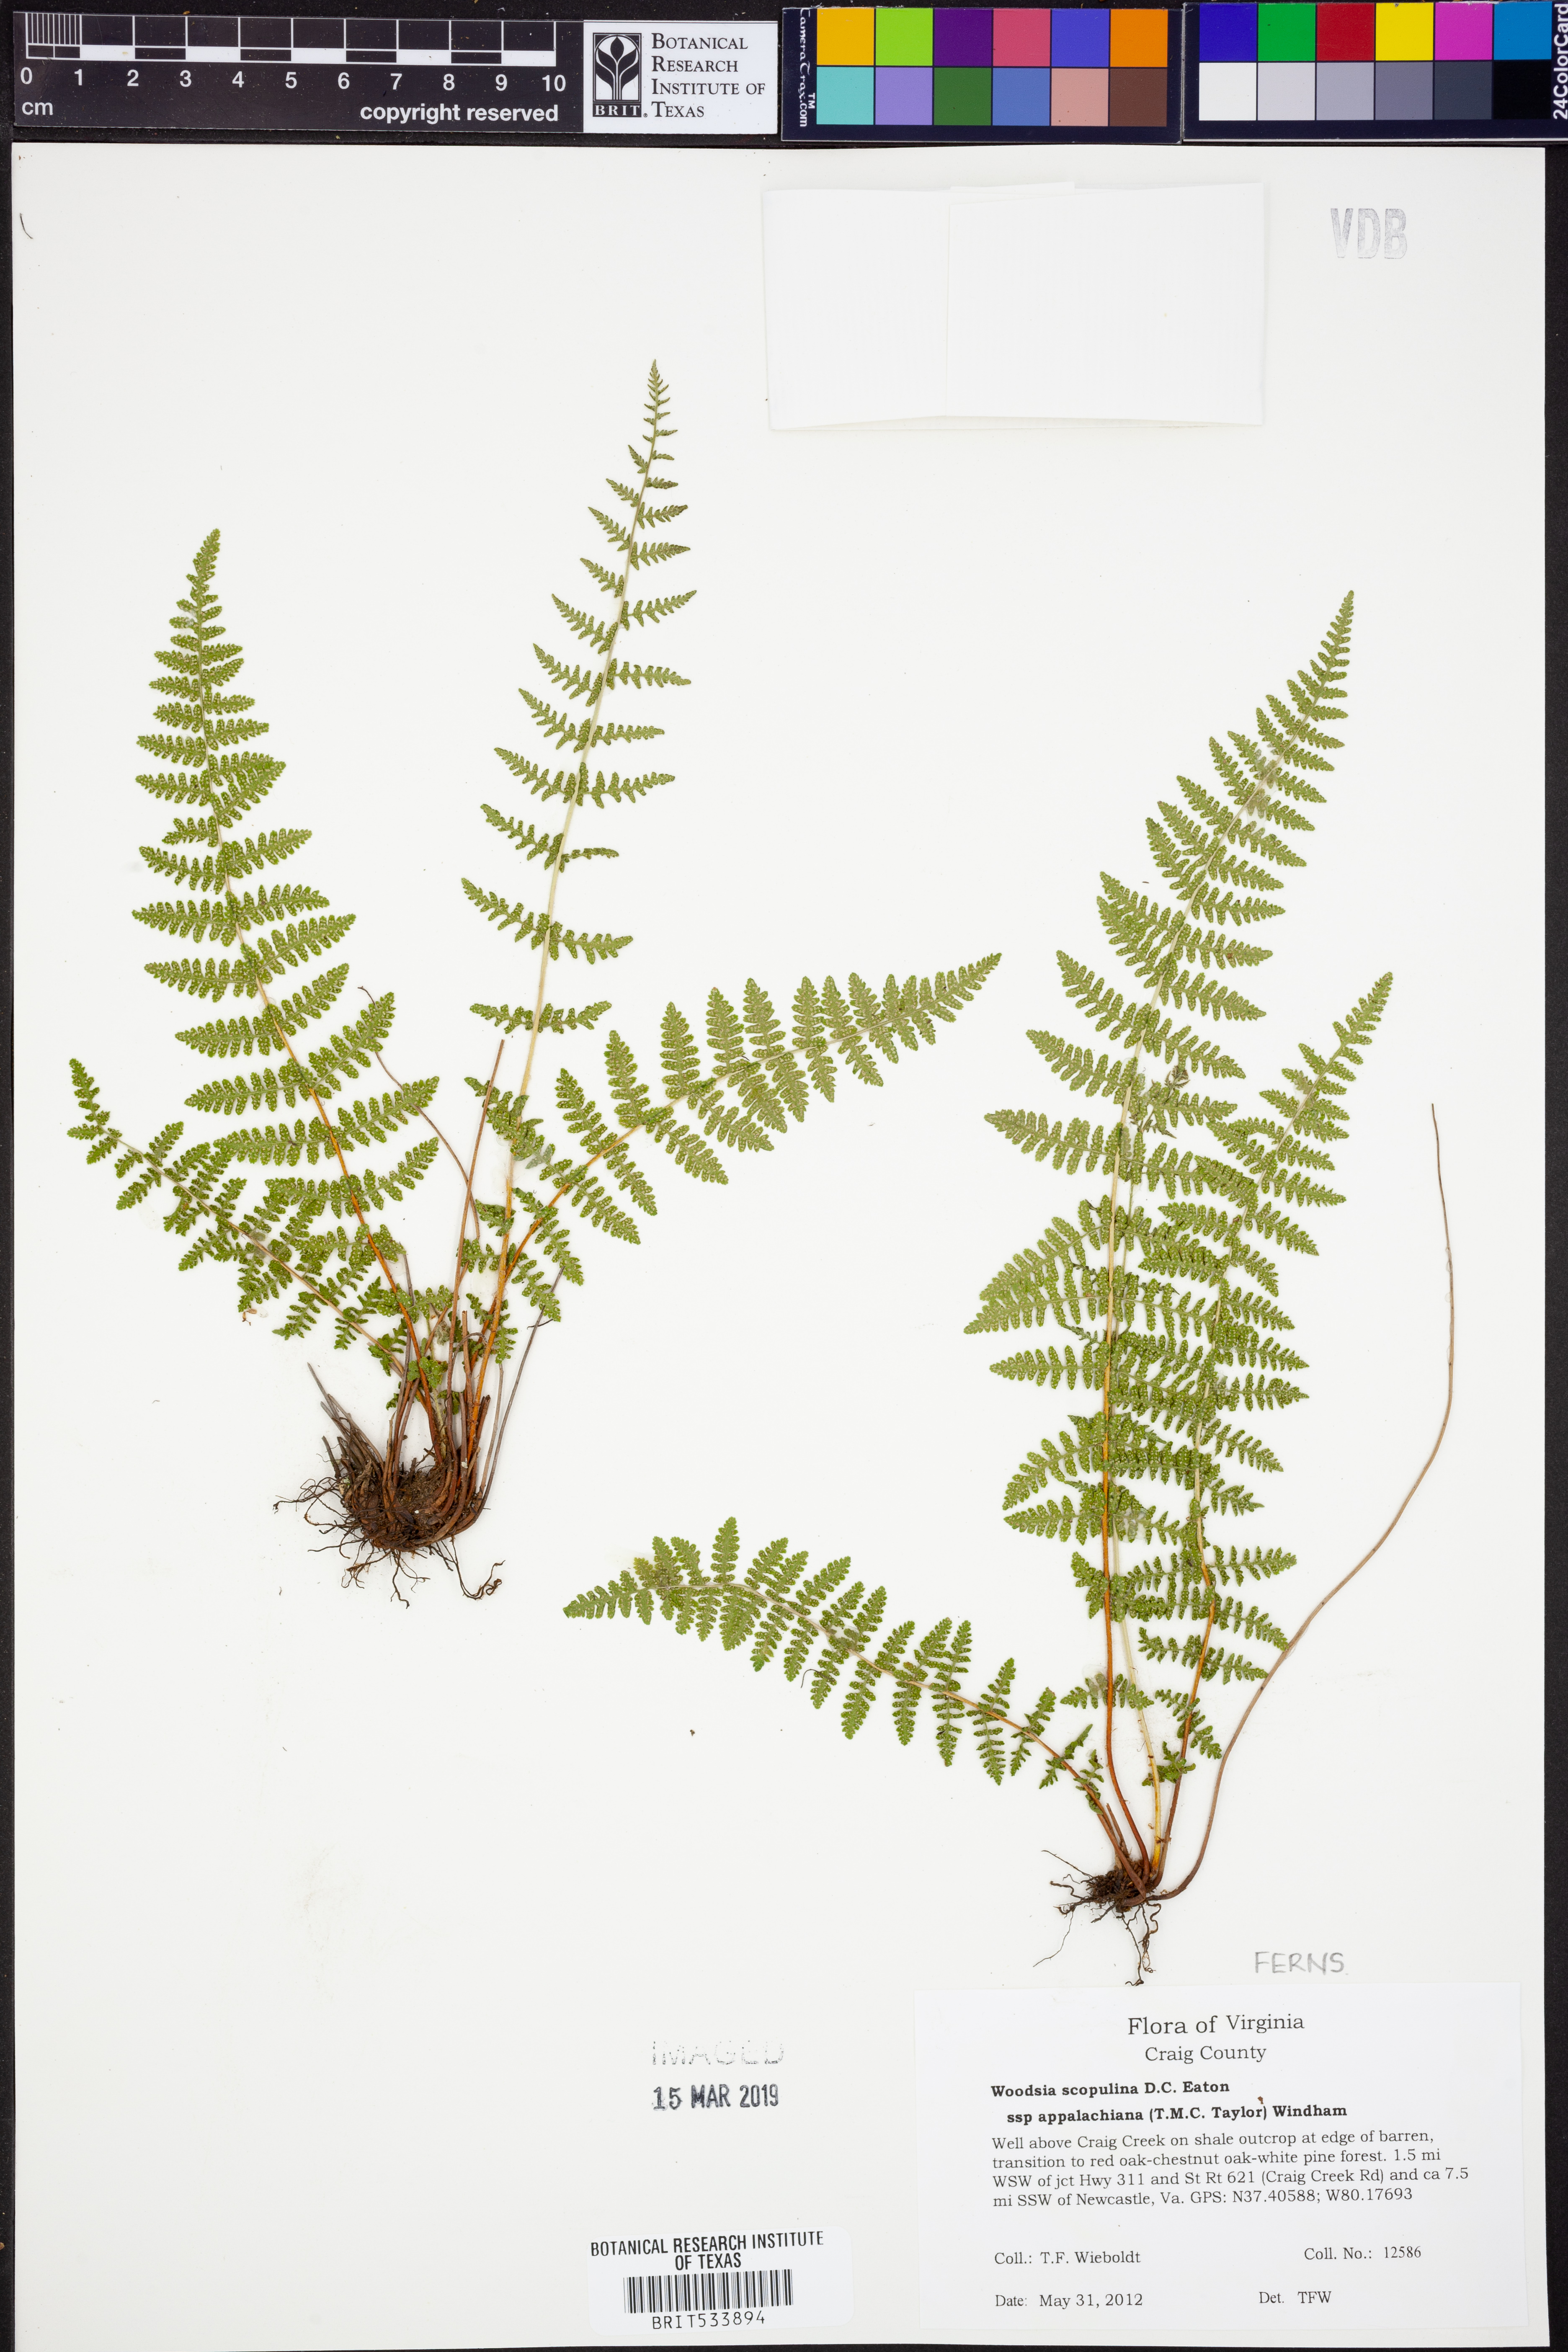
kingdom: Plantae
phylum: Tracheophyta
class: Polypodiopsida
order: Polypodiales
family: Woodsiaceae
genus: Physematium
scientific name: Physematium scopulinum
